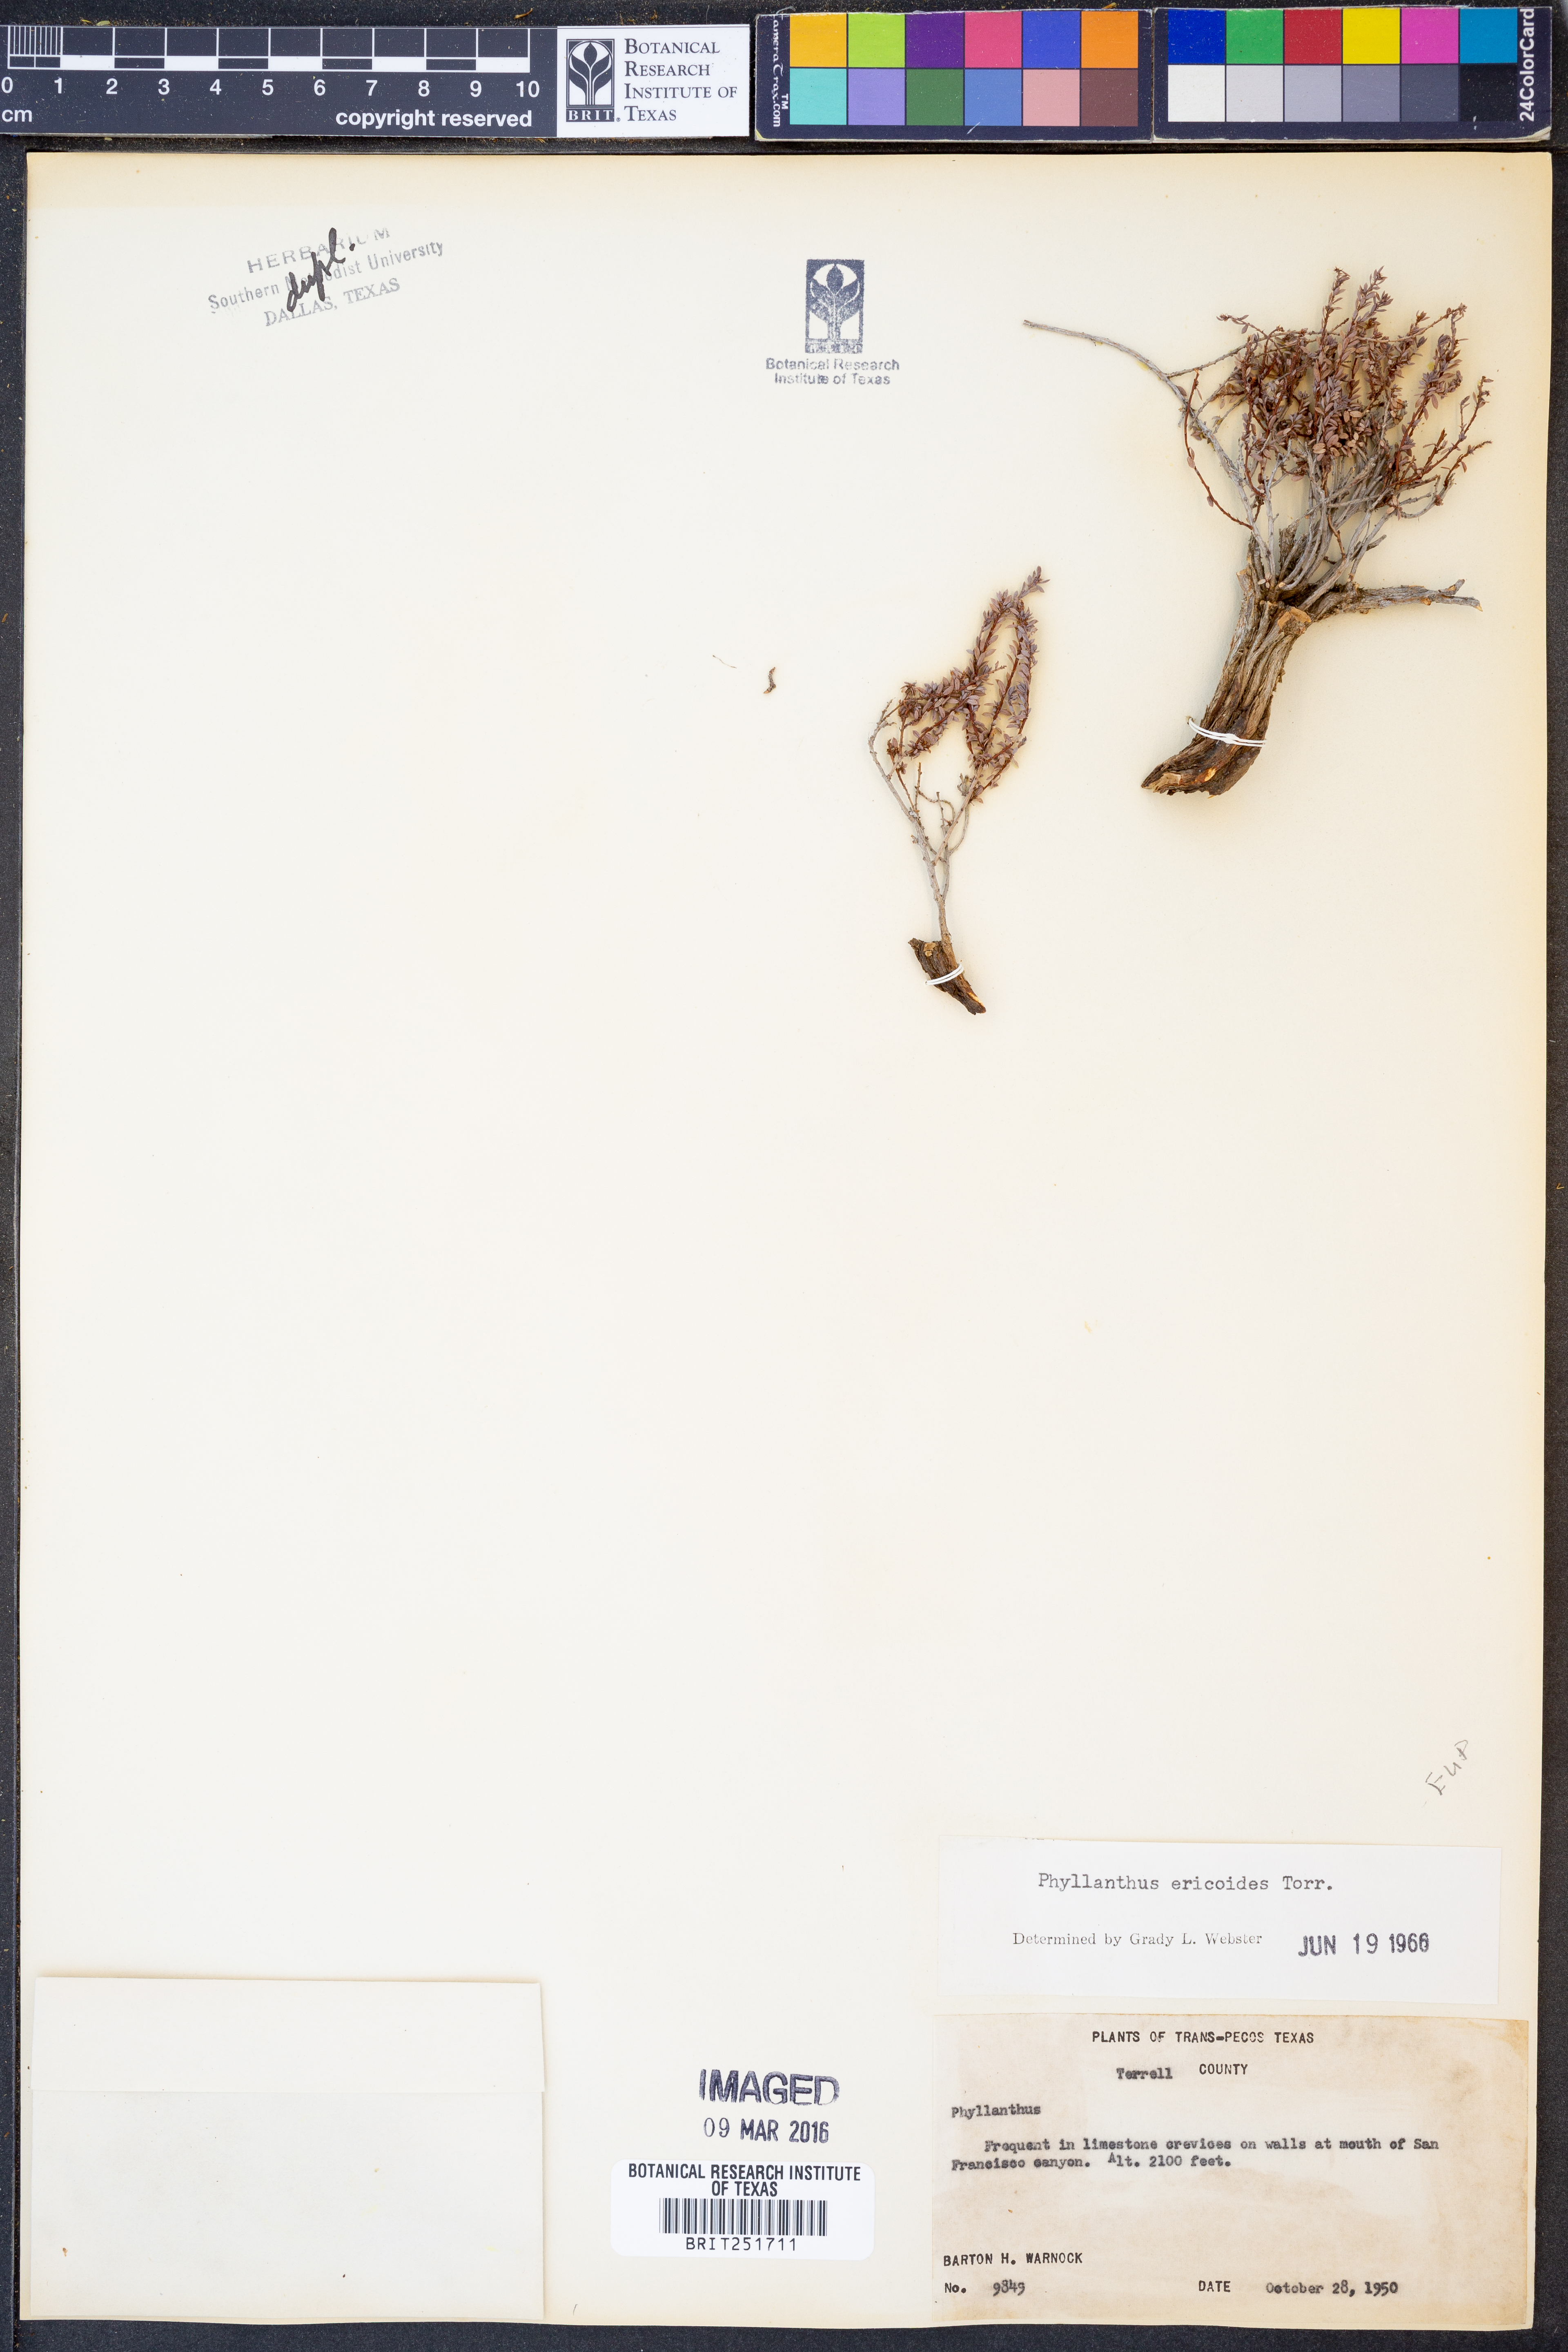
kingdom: Plantae
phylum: Tracheophyta
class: Magnoliopsida
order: Malpighiales
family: Phyllanthaceae
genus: Phyllanthus
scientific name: Phyllanthus ericoides
